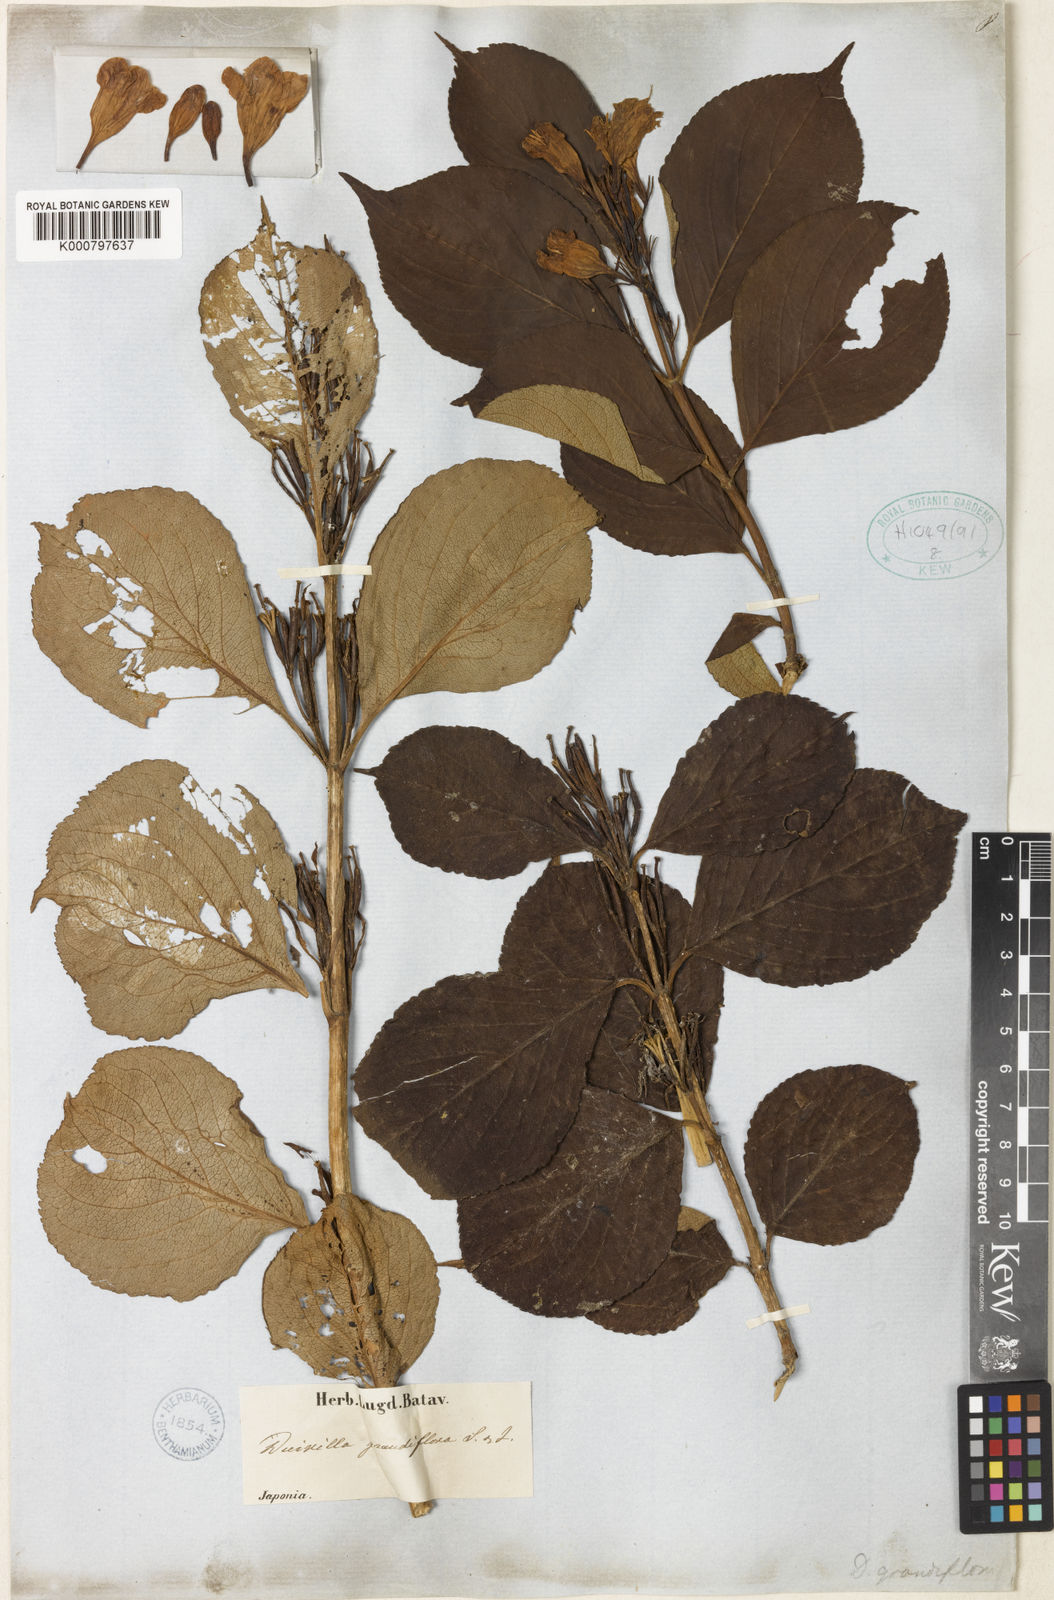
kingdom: Plantae
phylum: Tracheophyta
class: Magnoliopsida
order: Dipsacales
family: Caprifoliaceae
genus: Weigela
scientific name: Weigela coraeensis
